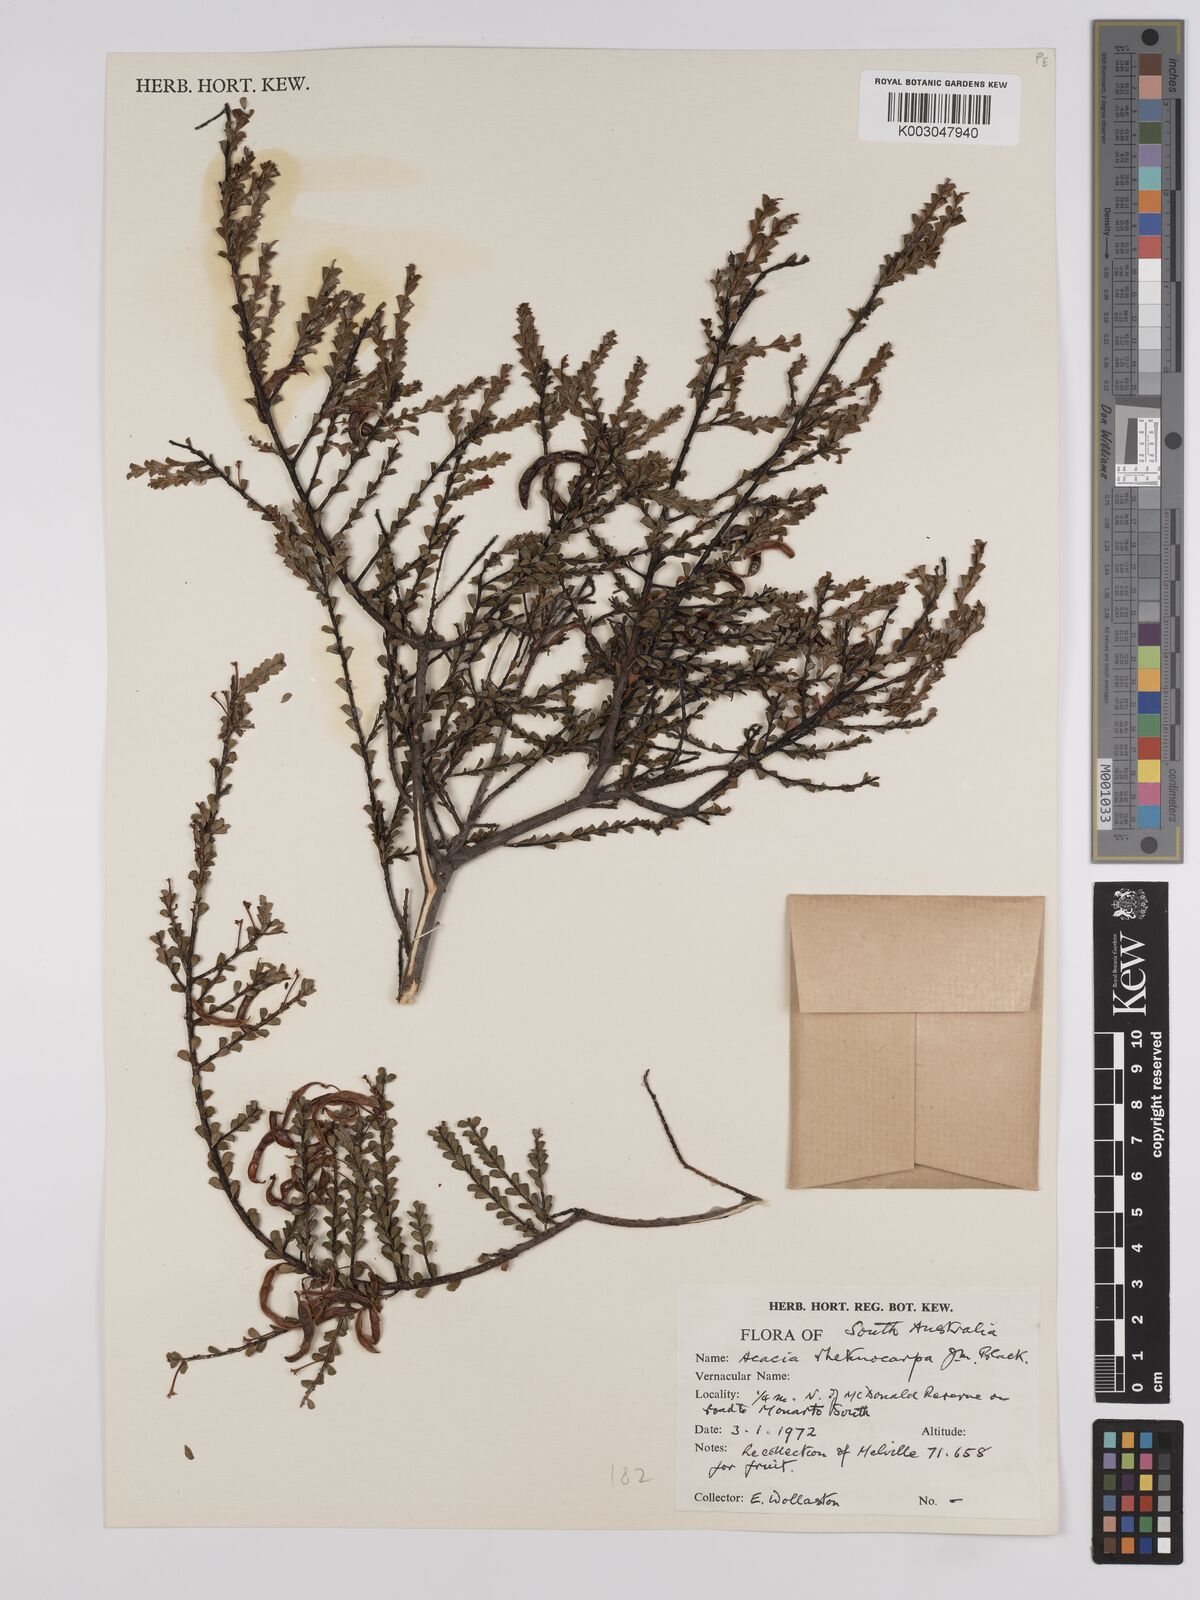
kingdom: Plantae
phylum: Tracheophyta
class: Magnoliopsida
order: Fabales
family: Fabaceae
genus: Acacia
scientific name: Acacia brachyclada
